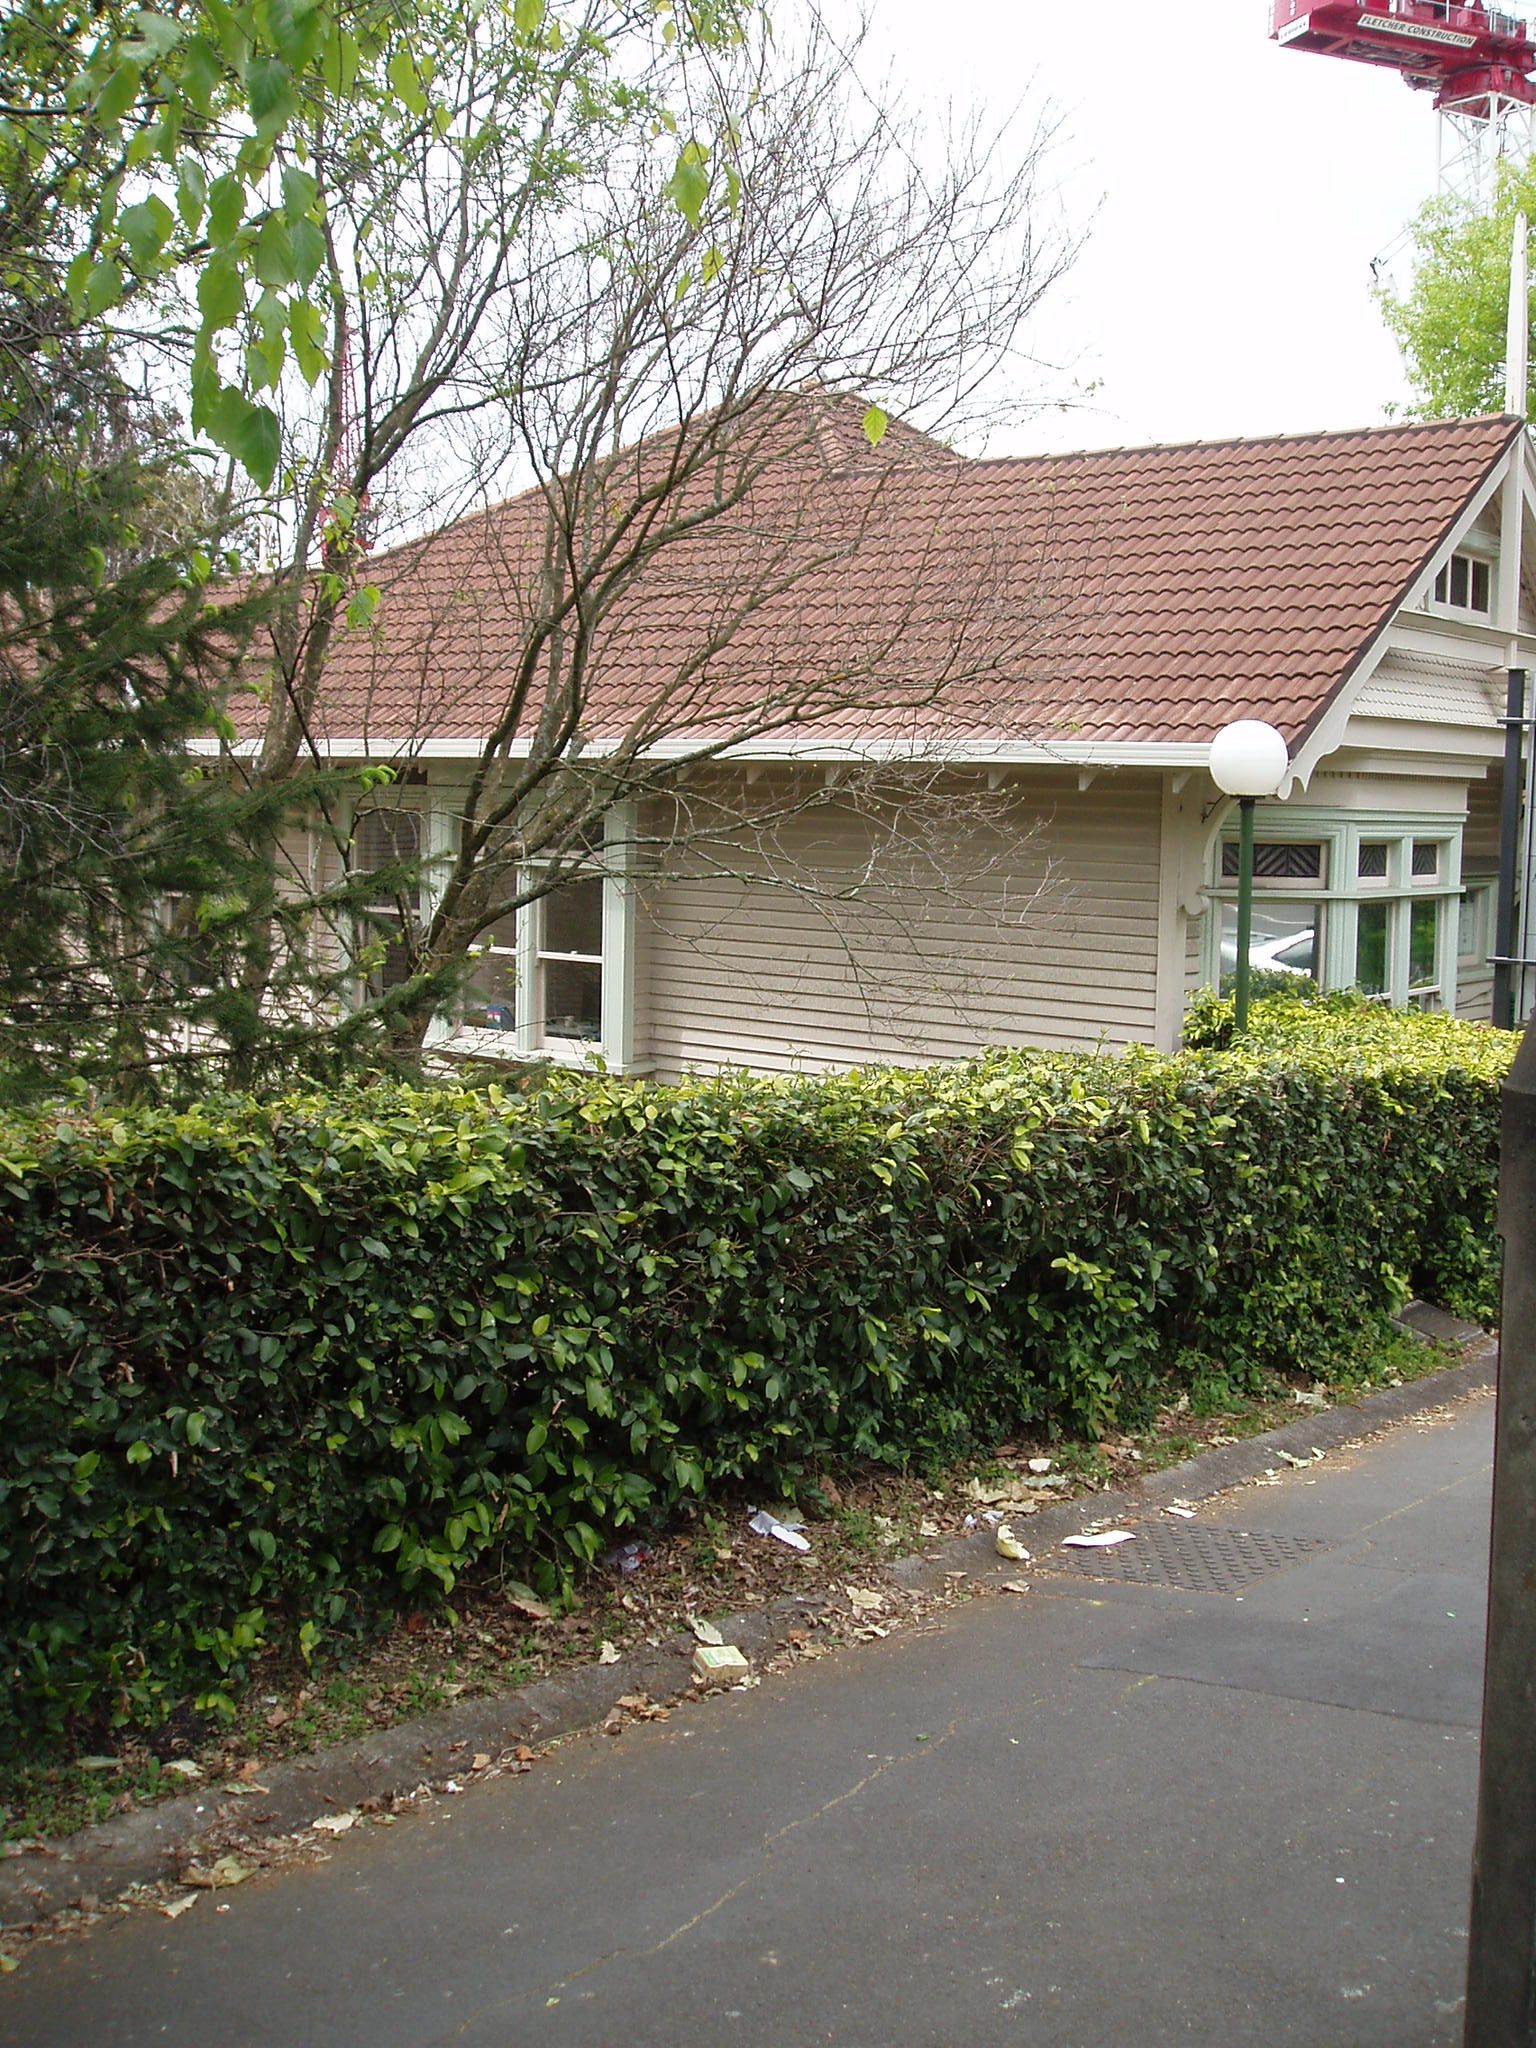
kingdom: Plantae
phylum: Tracheophyta
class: Magnoliopsida
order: Sapindales
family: Sapindaceae
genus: Acer
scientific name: Acer buergerianum
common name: Trident maple
